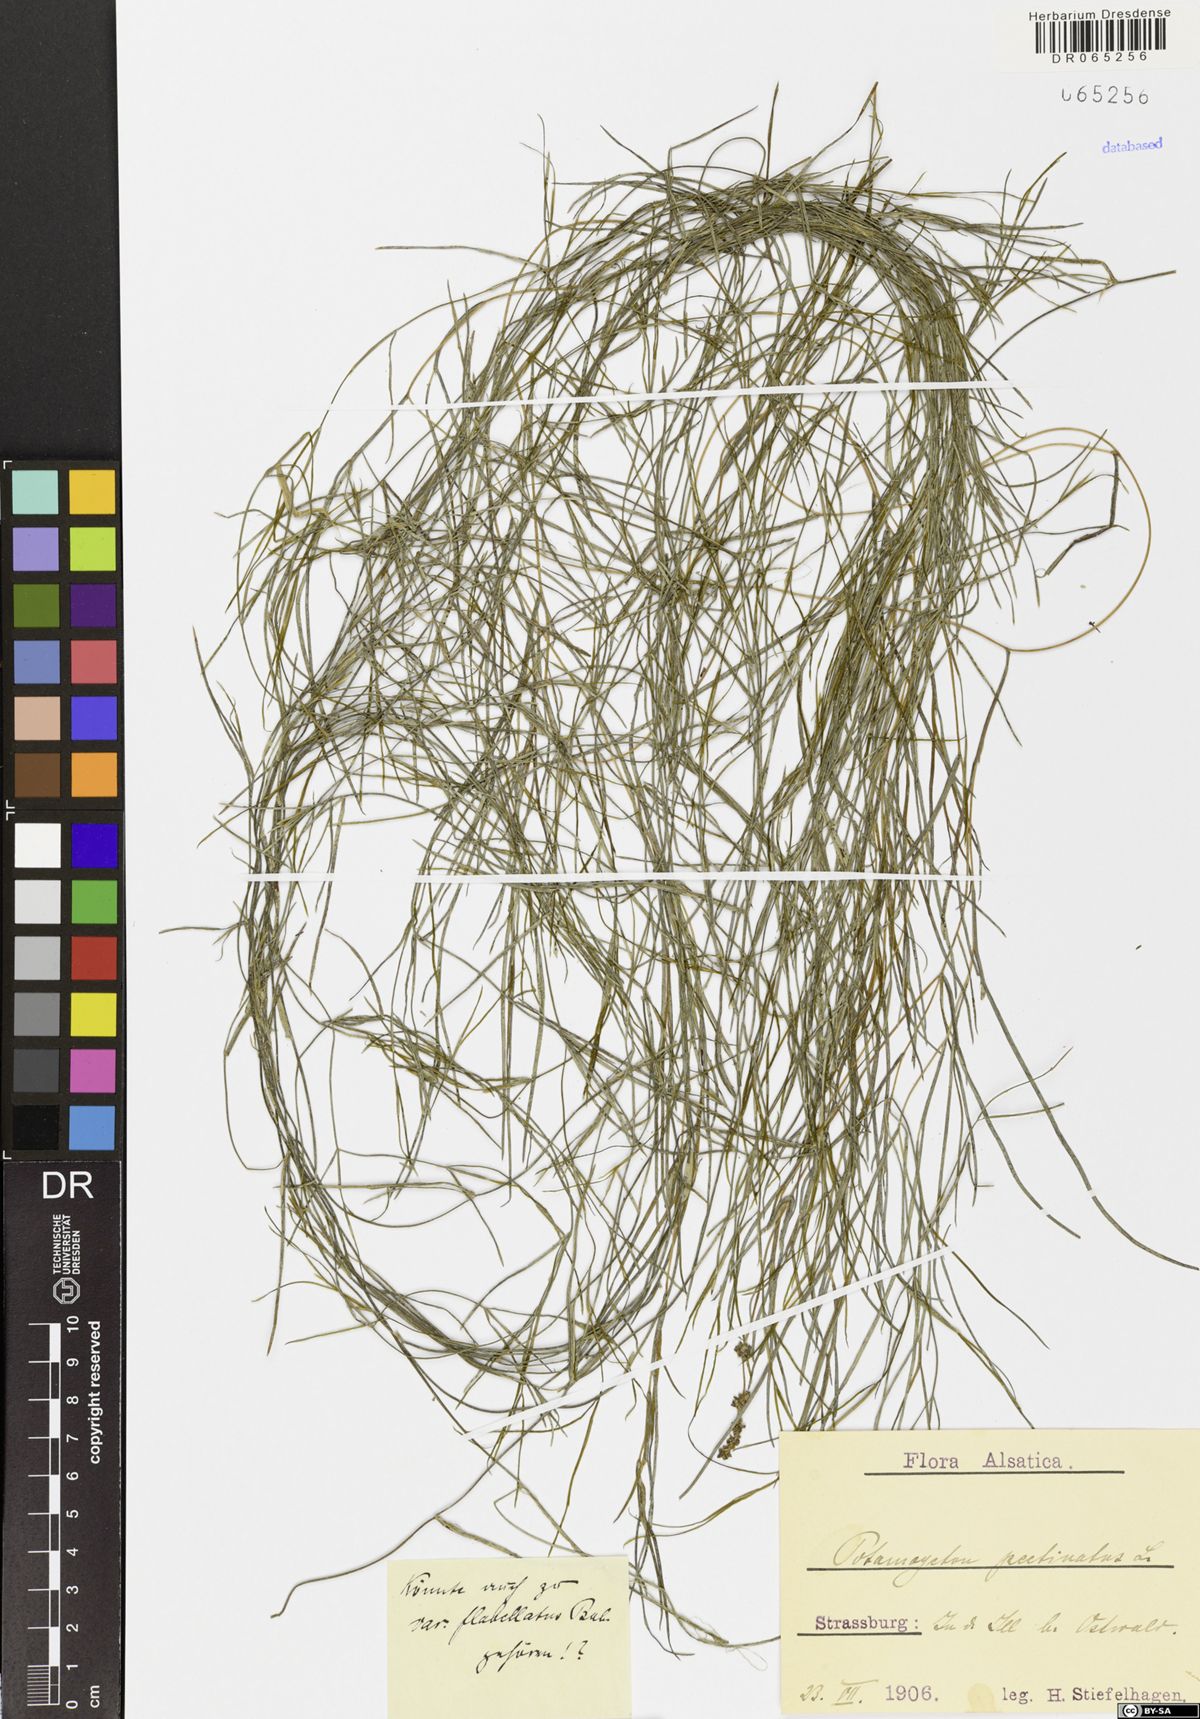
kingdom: Plantae
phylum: Tracheophyta
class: Liliopsida
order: Alismatales
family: Potamogetonaceae
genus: Stuckenia
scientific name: Stuckenia pectinata
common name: Sago pondweed
